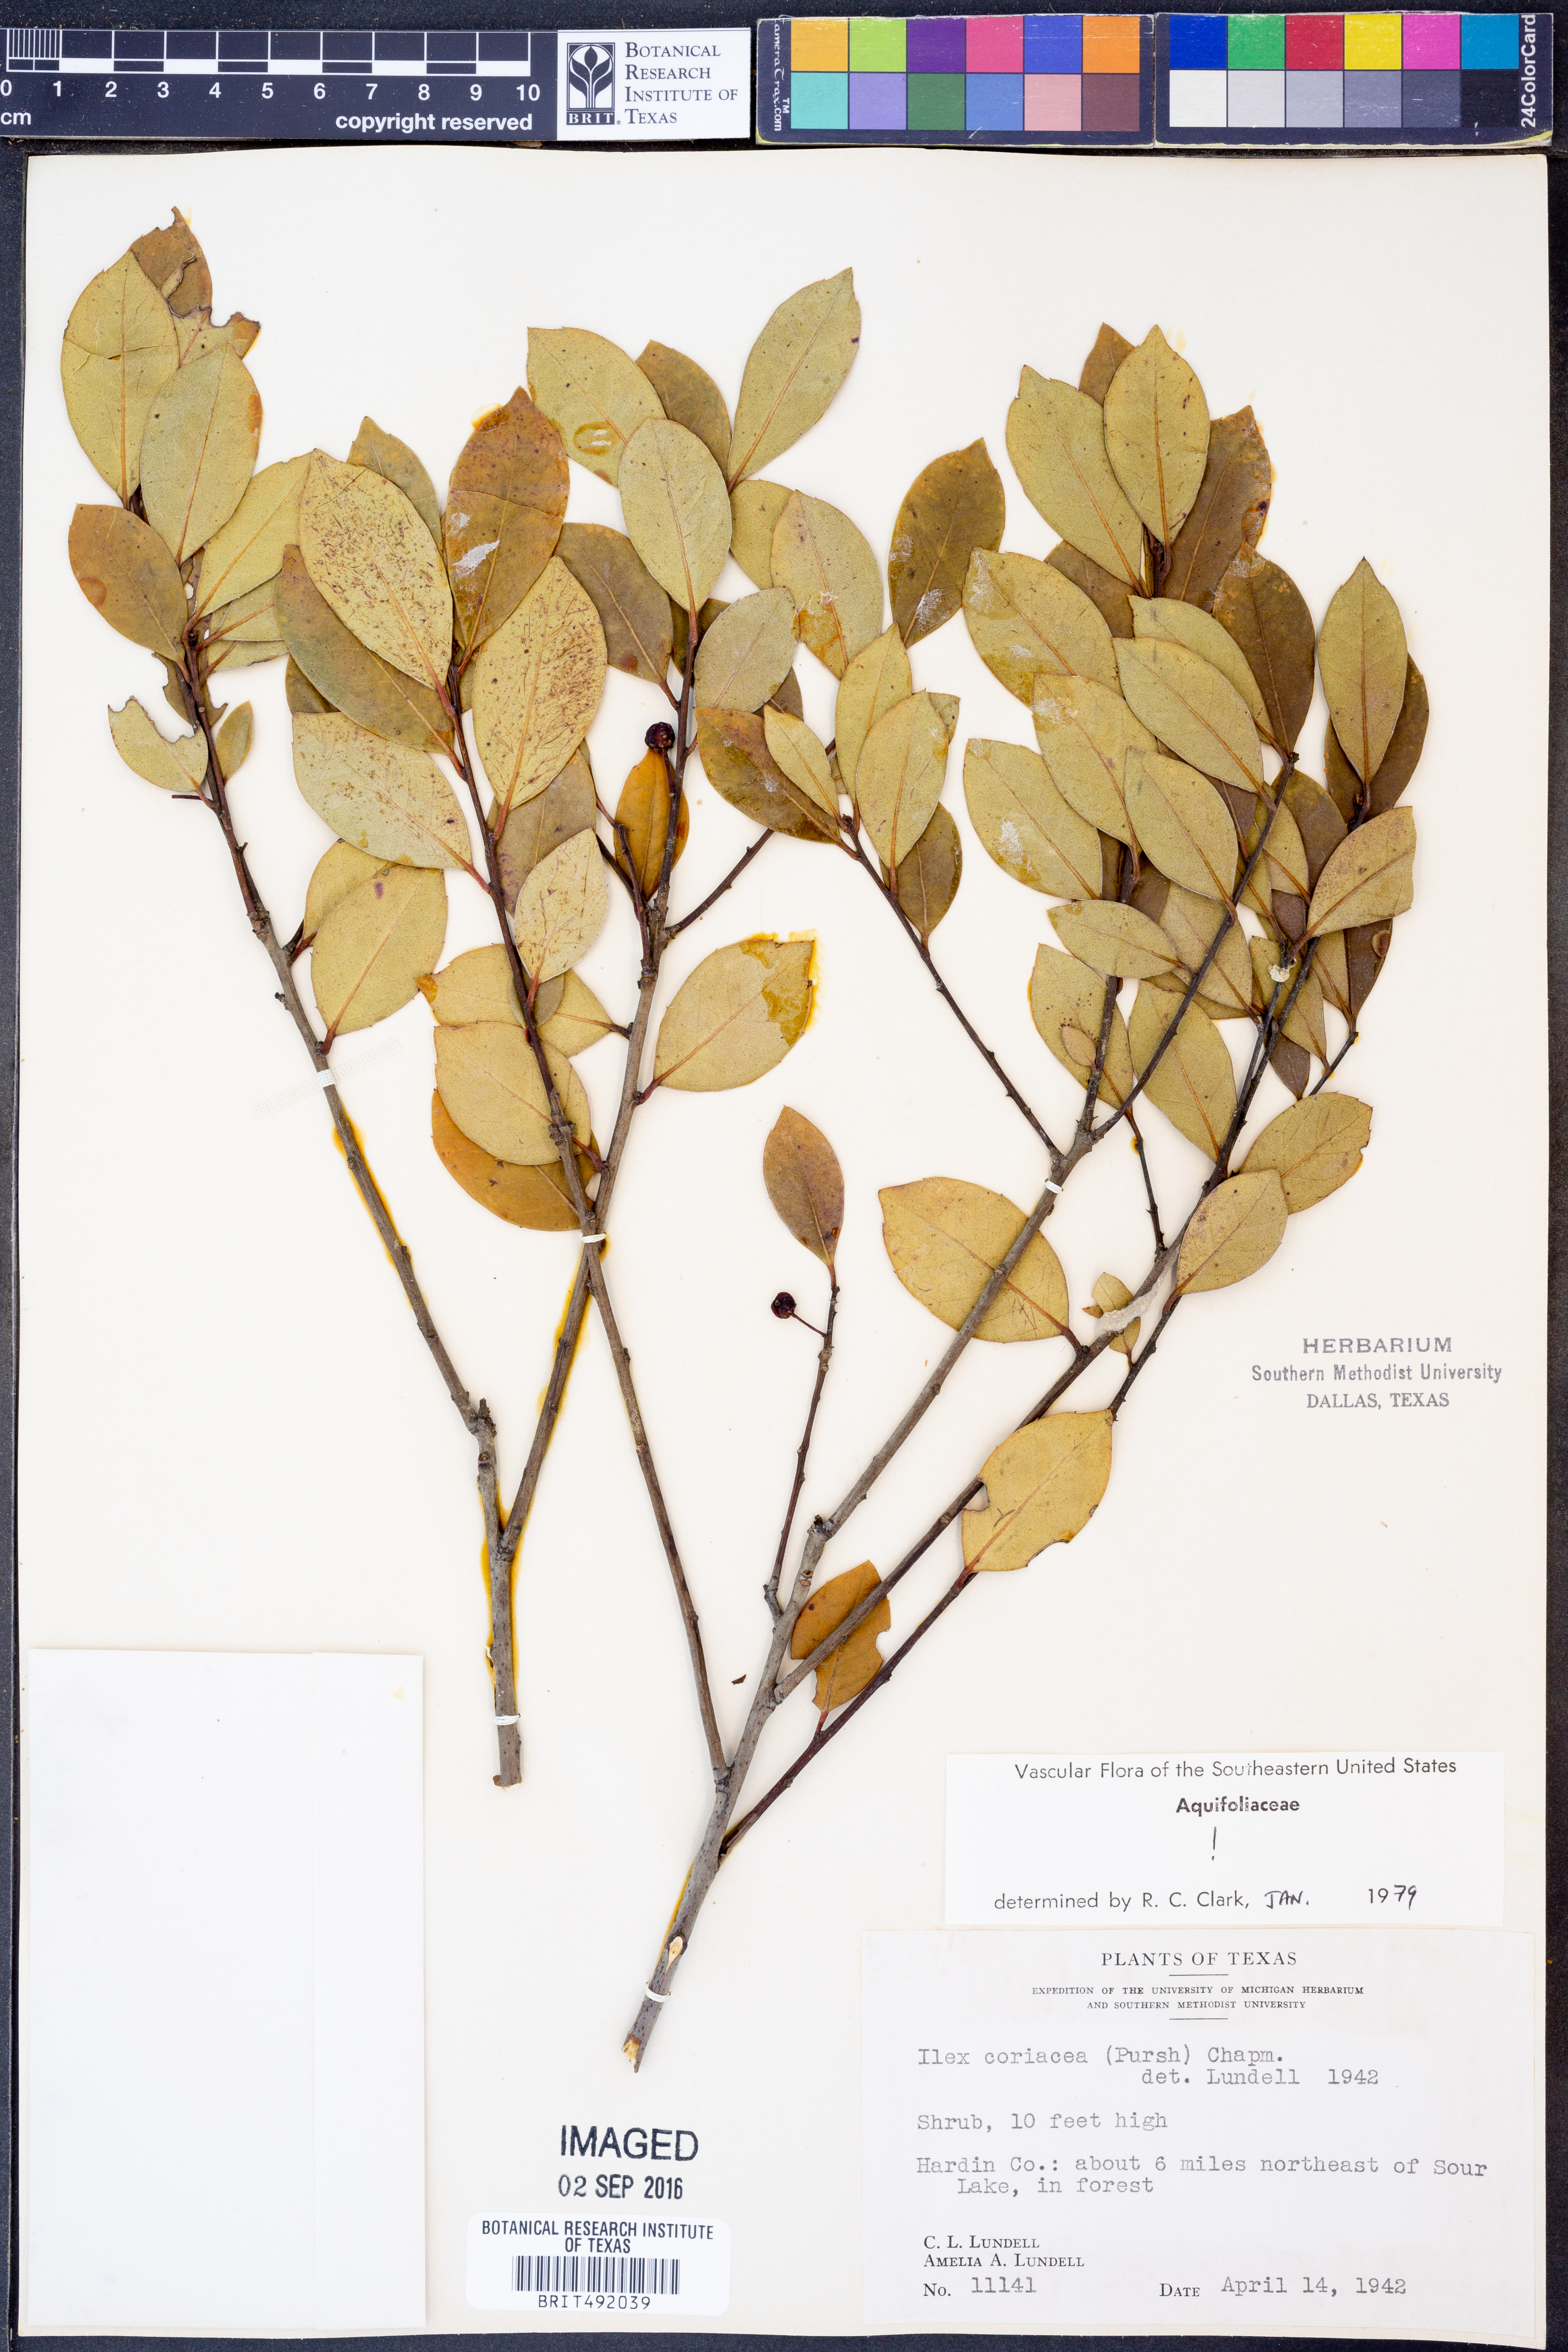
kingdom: Plantae
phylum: Tracheophyta
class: Magnoliopsida
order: Aquifoliales
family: Aquifoliaceae
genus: Ilex
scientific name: Ilex coriacea
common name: Sweet gallberry
